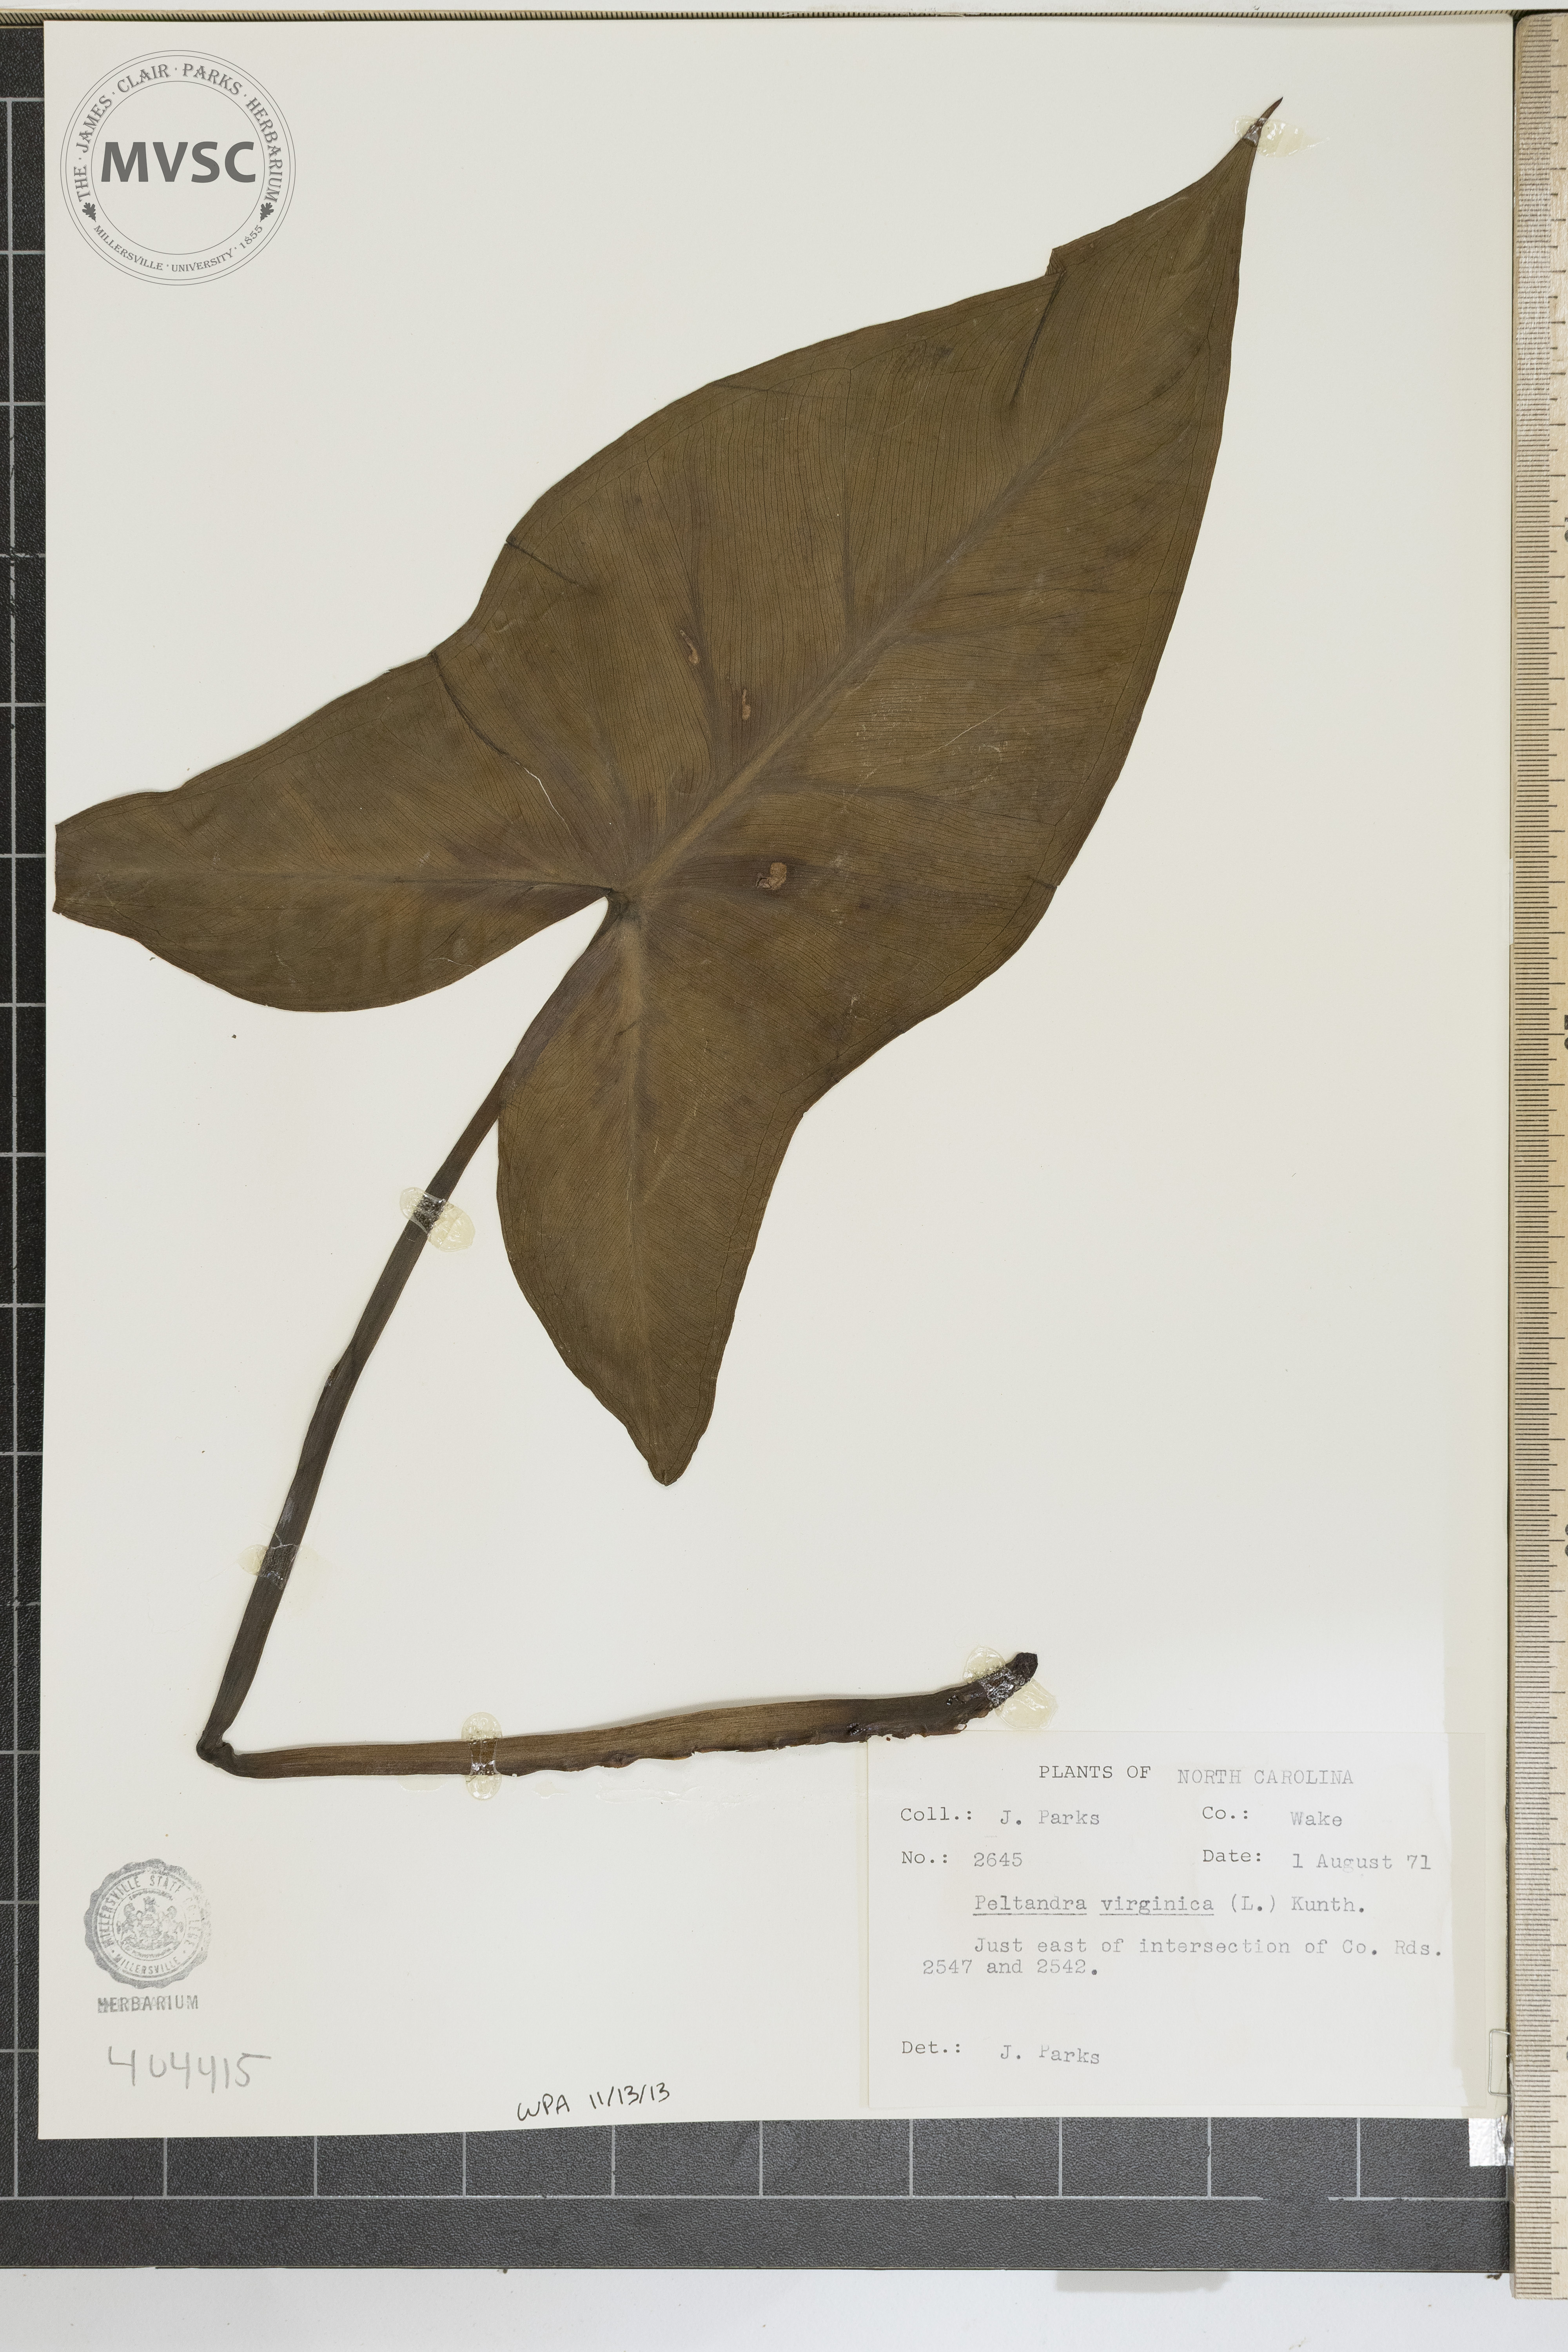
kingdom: Plantae
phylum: Tracheophyta
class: Liliopsida
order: Alismatales
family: Araceae
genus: Peltandra
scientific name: Peltandra virginica
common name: Arrow arum
